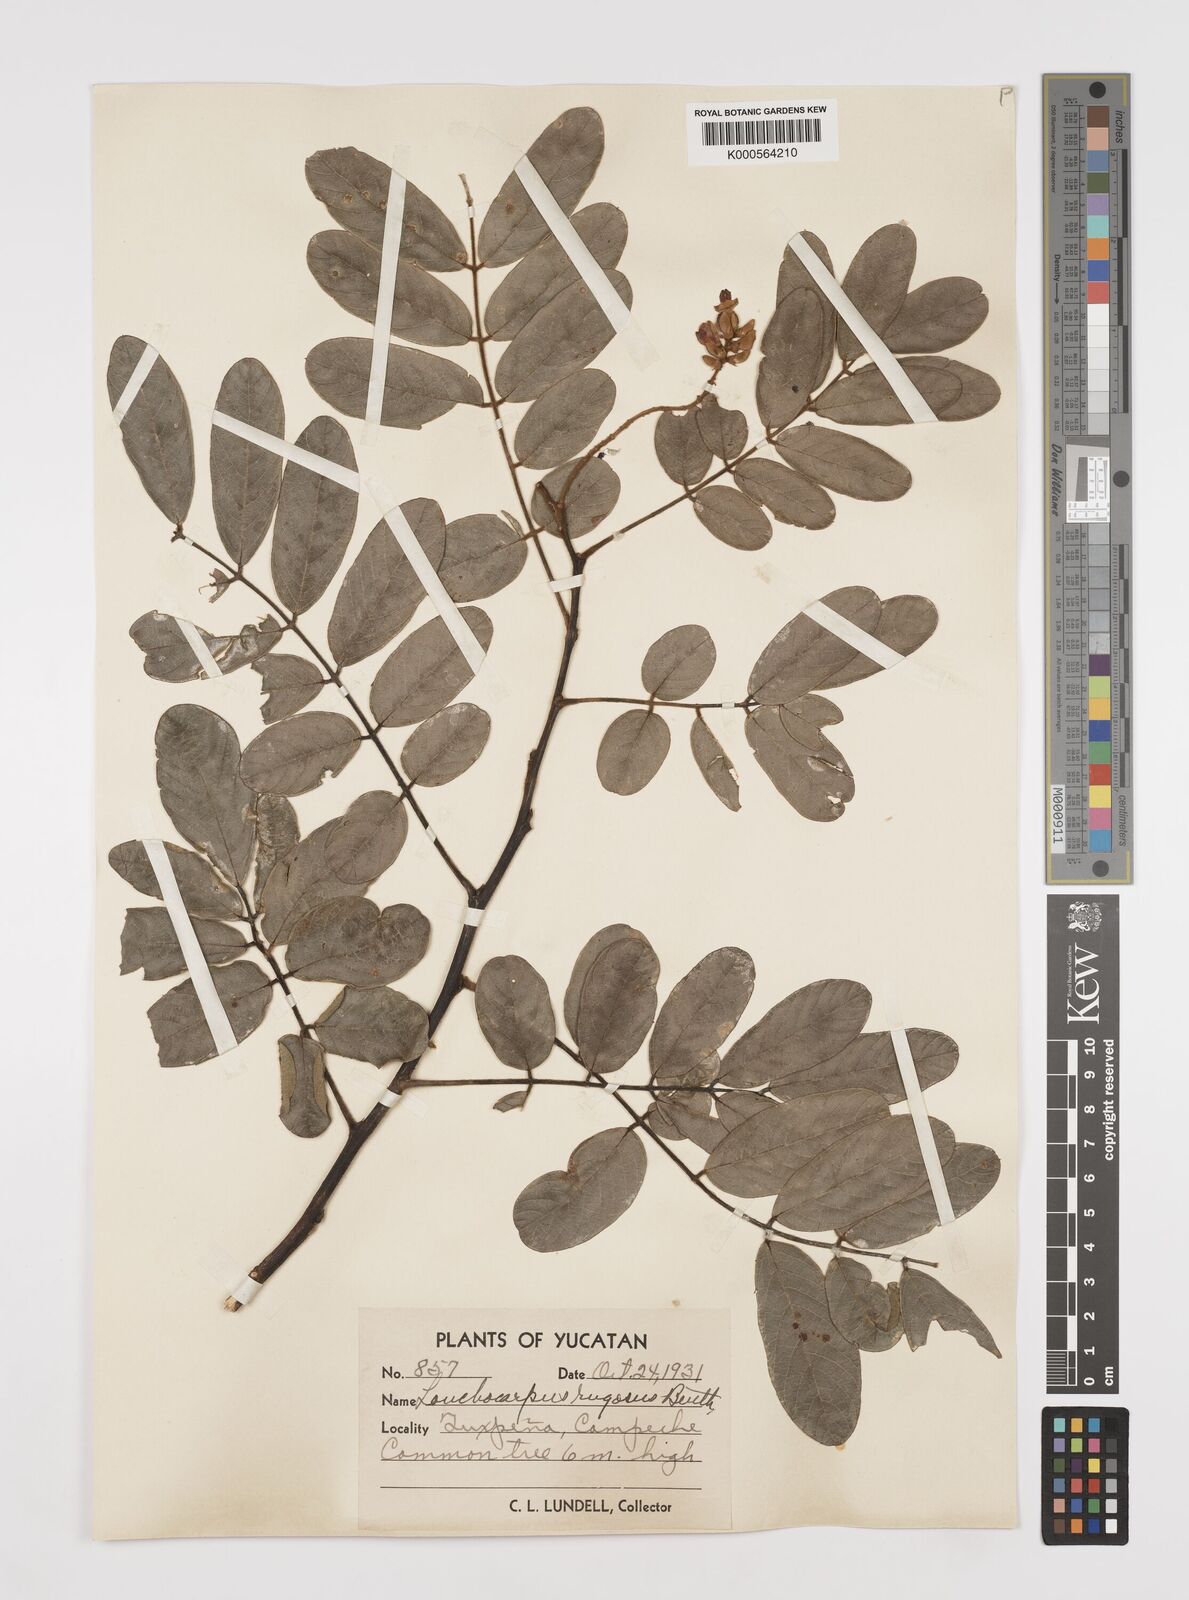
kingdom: Plantae
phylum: Tracheophyta
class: Magnoliopsida
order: Fabales
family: Fabaceae
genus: Lonchocarpus
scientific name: Lonchocarpus rugosus
